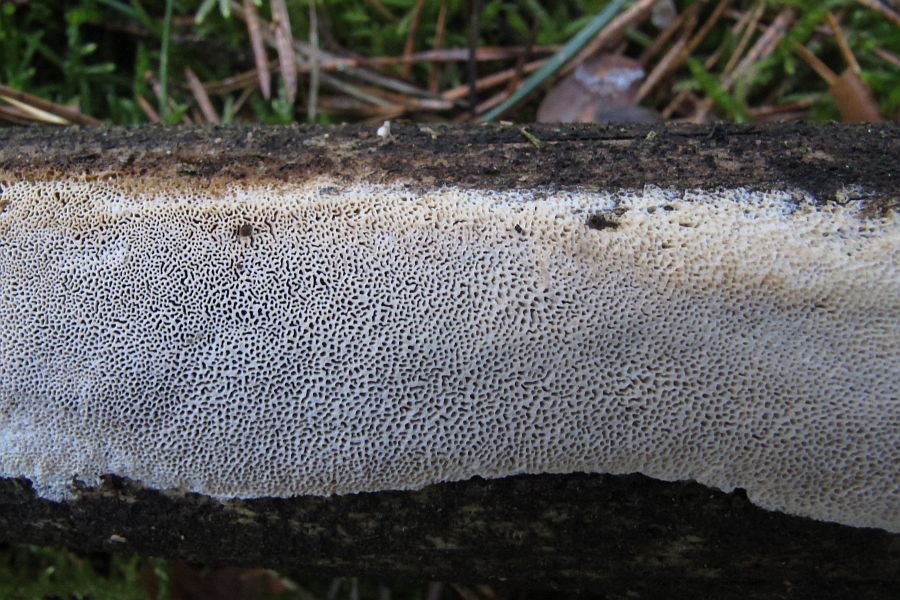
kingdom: Fungi
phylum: Basidiomycota
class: Agaricomycetes
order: Polyporales
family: Fomitopsidaceae
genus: Neoantrodia
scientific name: Neoantrodia serialis
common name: række-sejporesvamp
